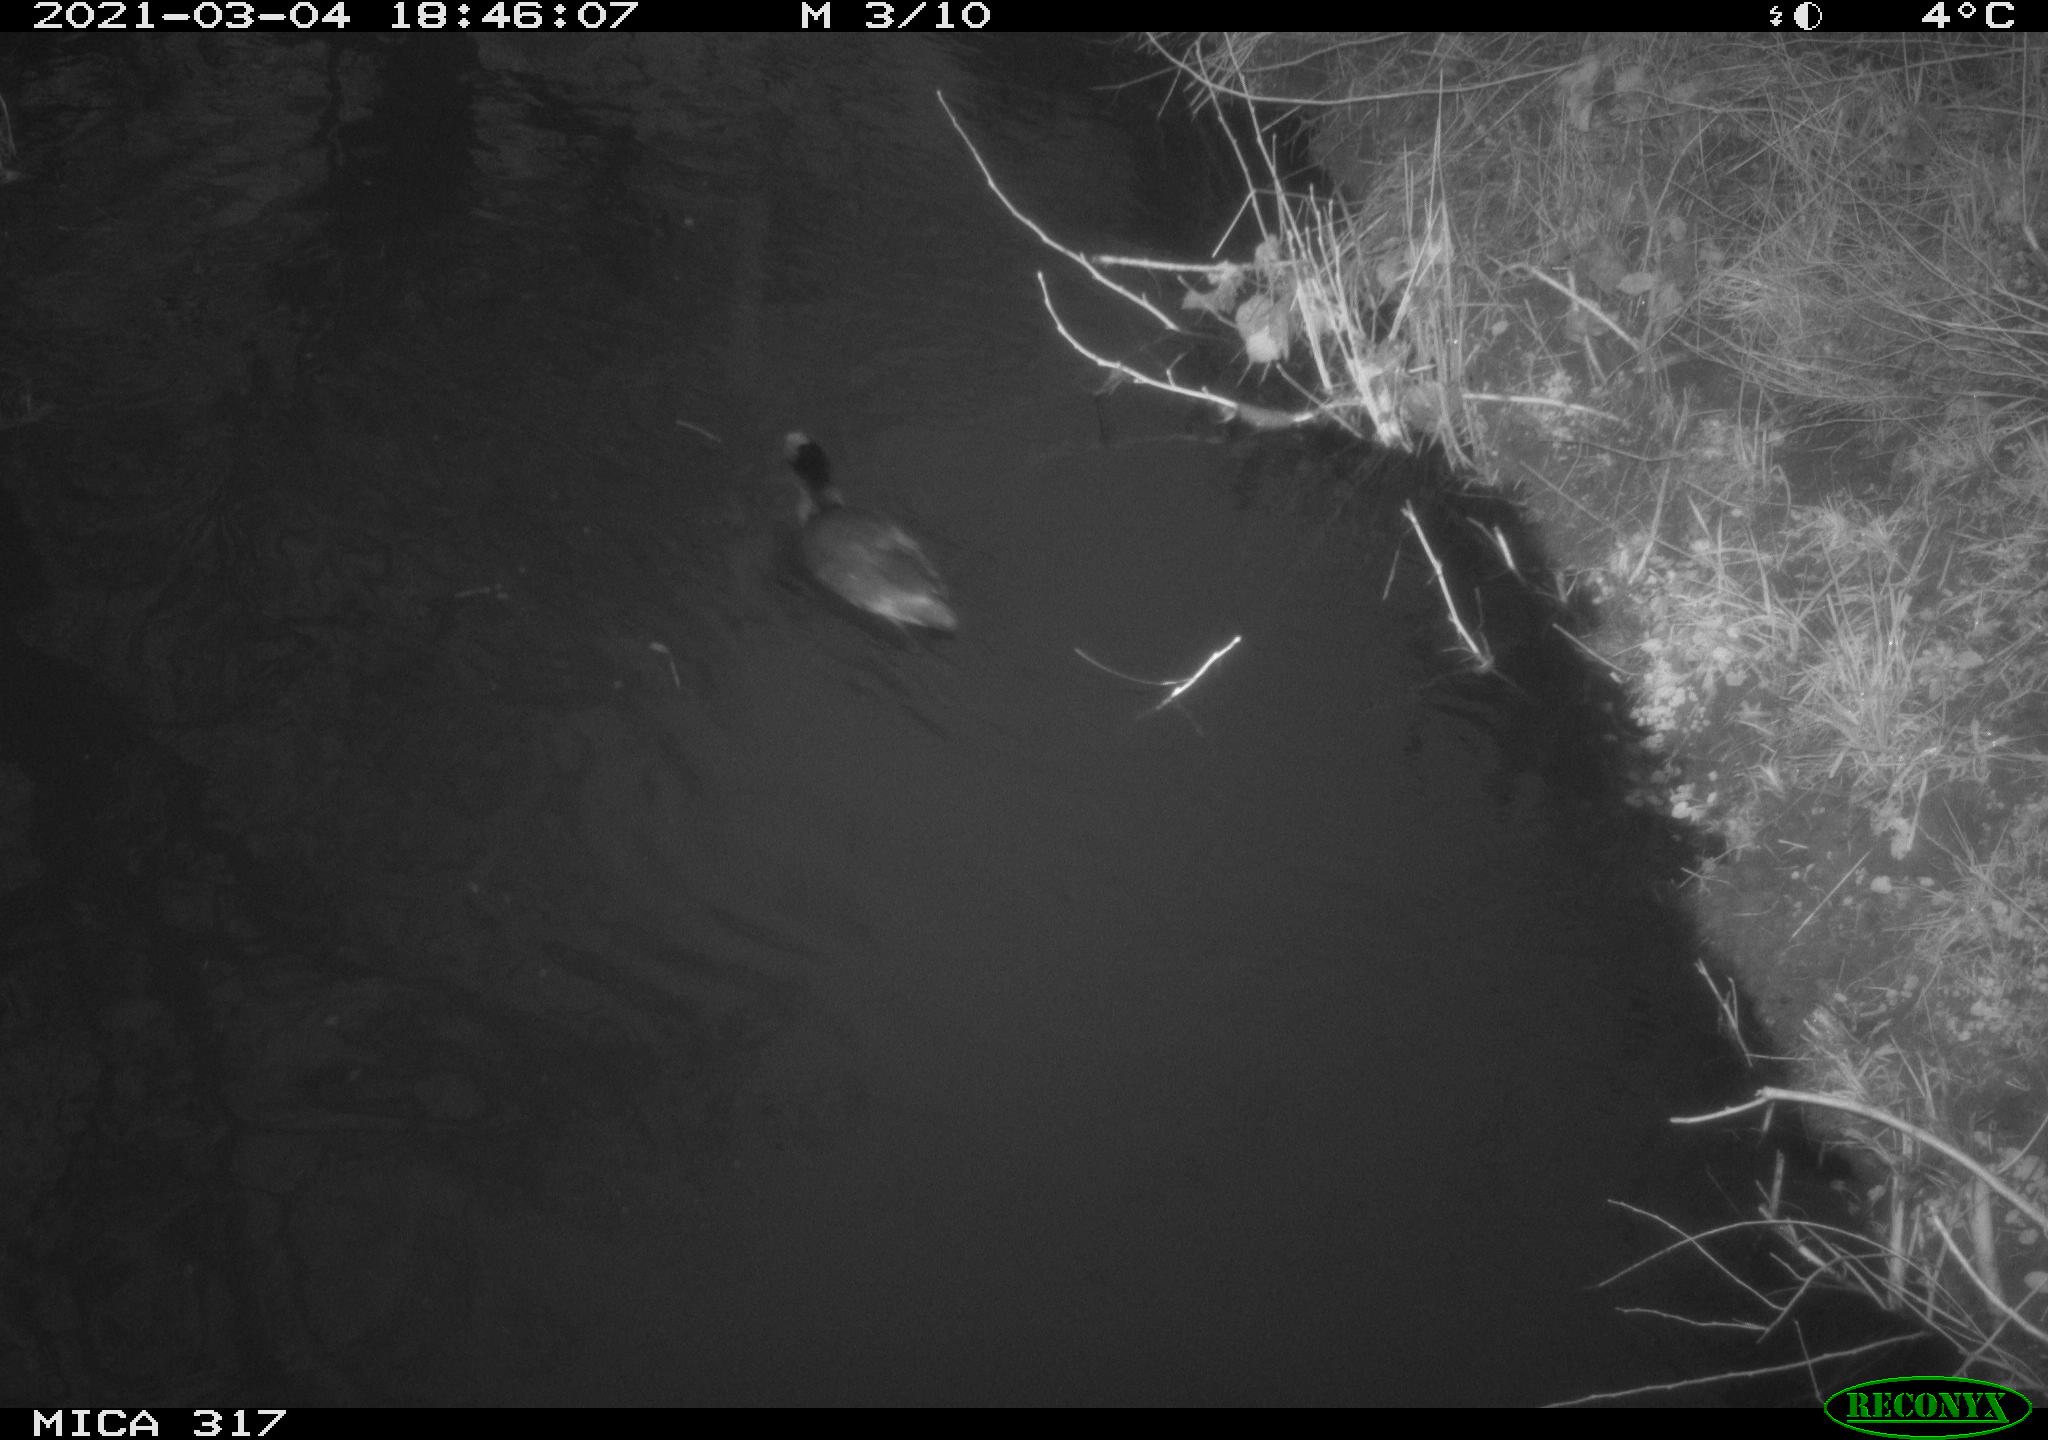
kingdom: Animalia
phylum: Chordata
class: Aves
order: Gruiformes
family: Rallidae
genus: Fulica
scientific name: Fulica atra
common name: Eurasian coot
